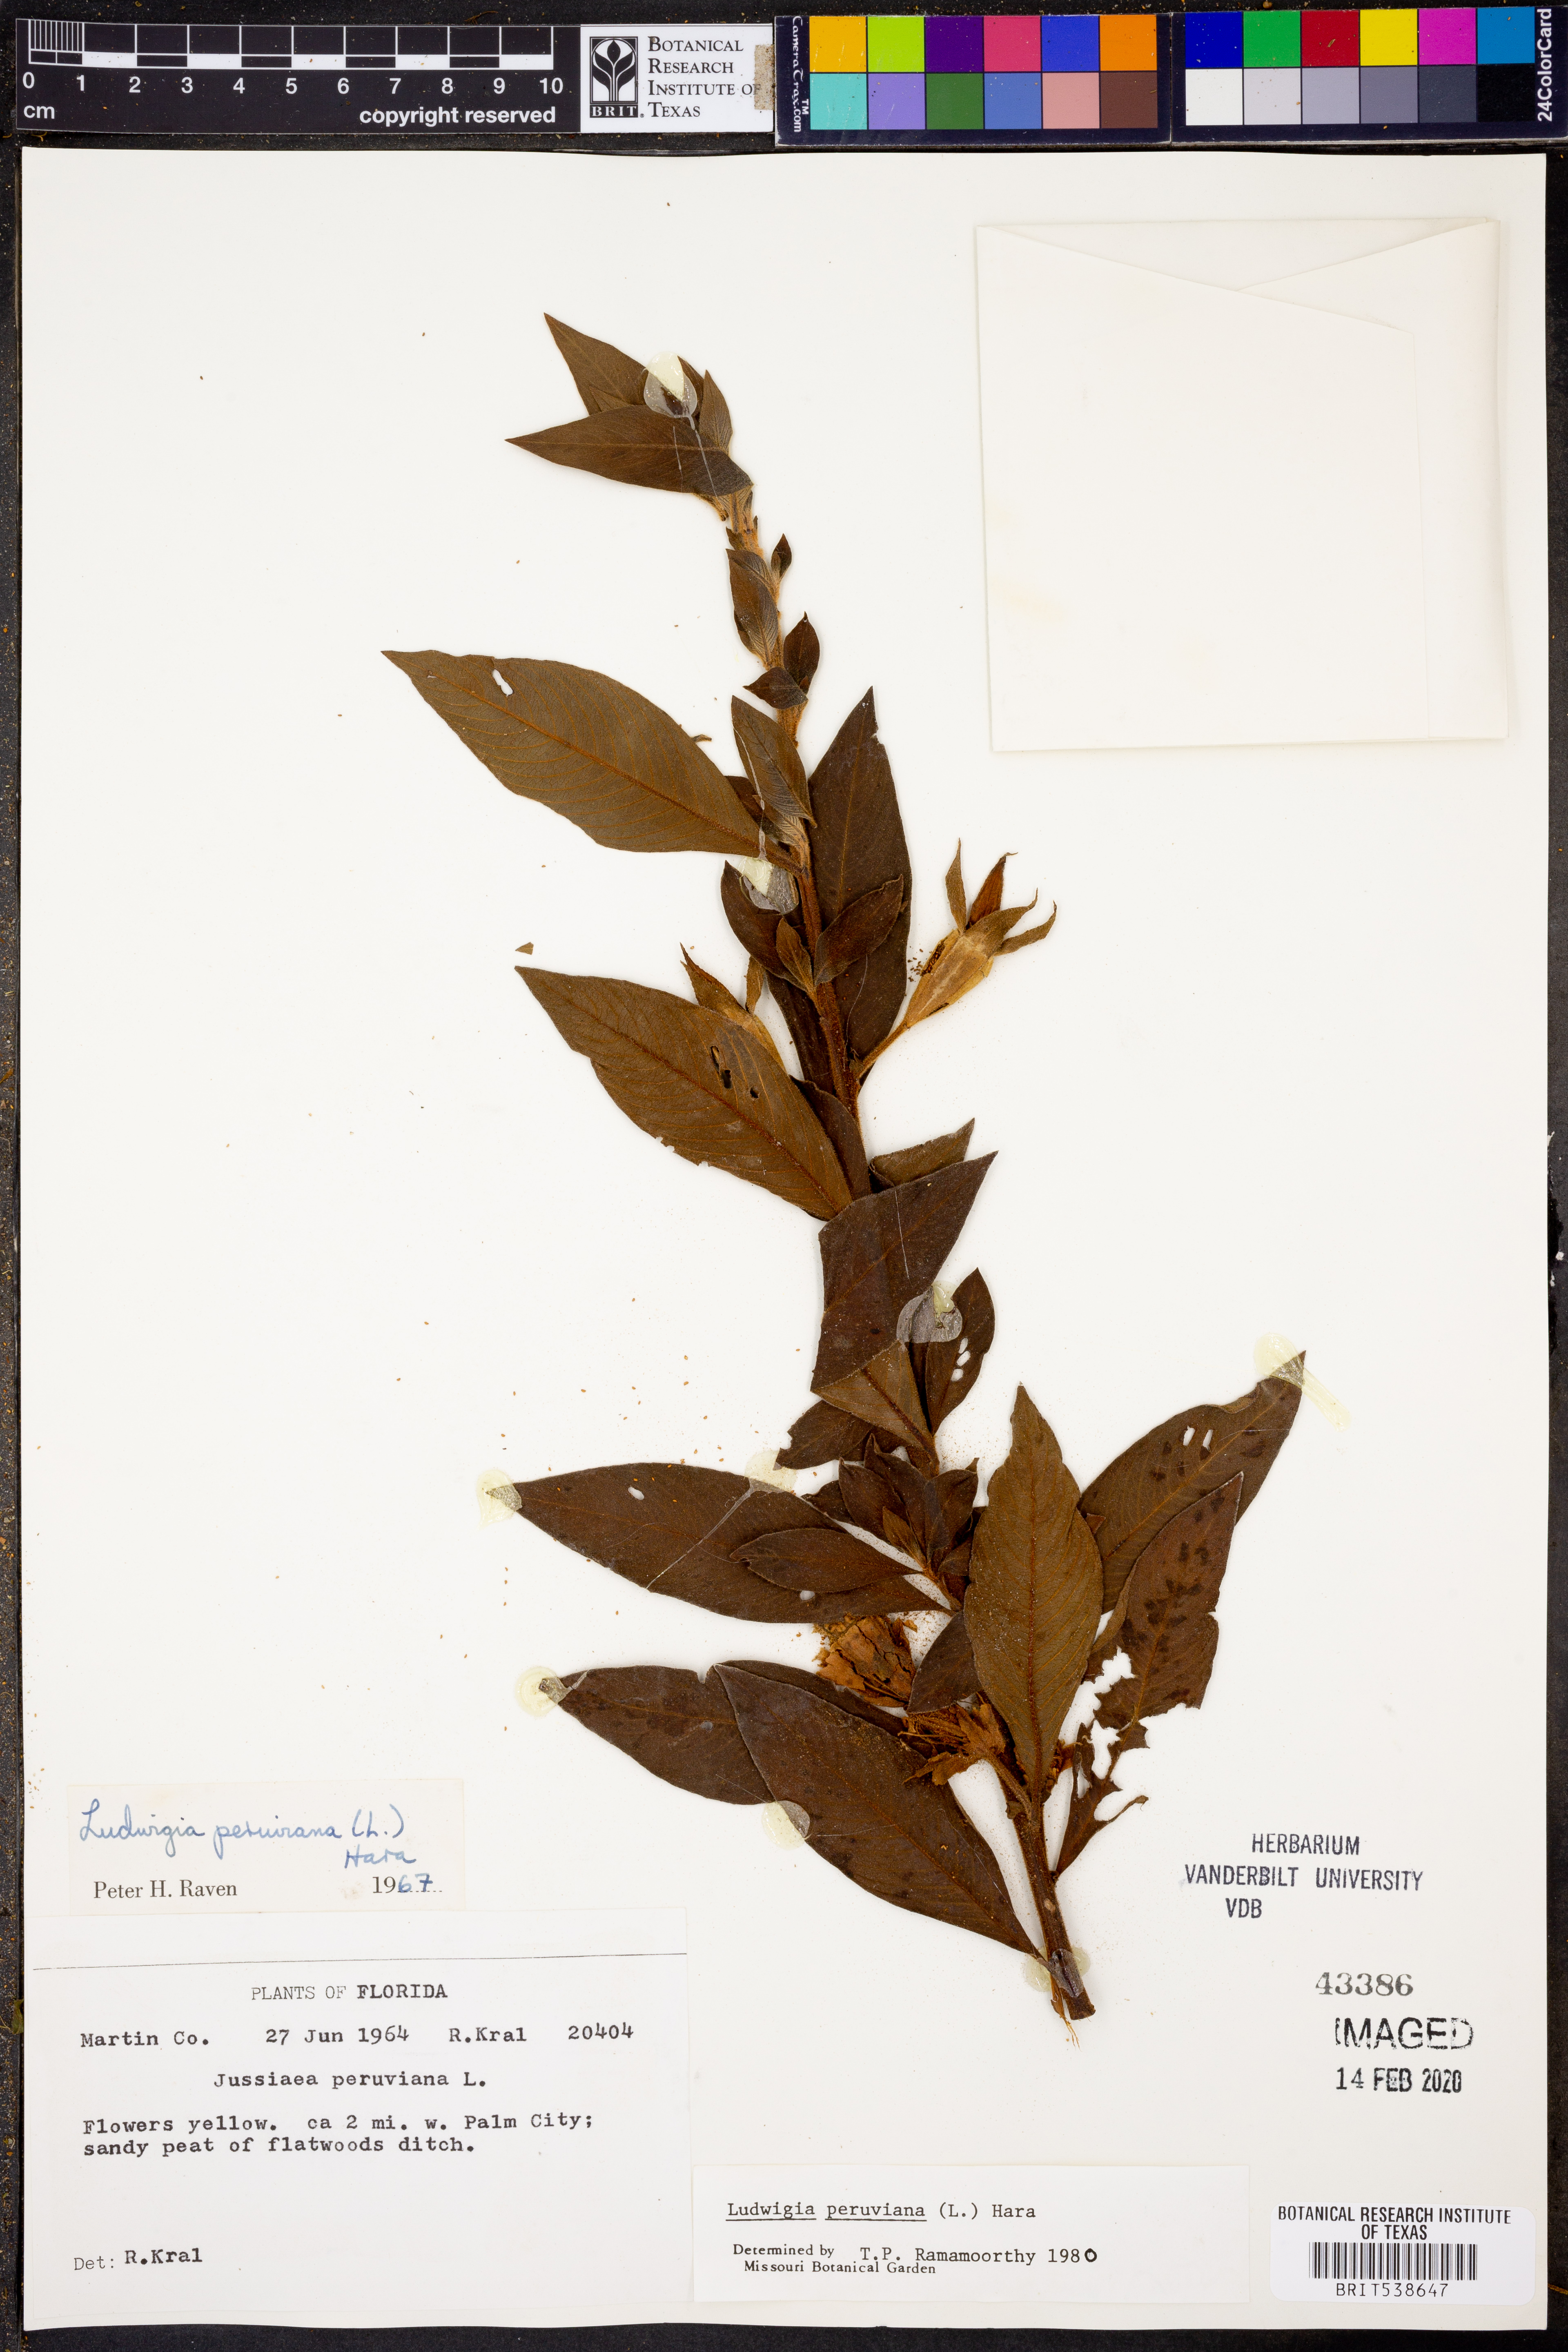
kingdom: Plantae
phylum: Tracheophyta
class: Magnoliopsida
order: Myrtales
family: Onagraceae
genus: Ludwigia
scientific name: Ludwigia peruviana
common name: Peruvian primrose-willow
